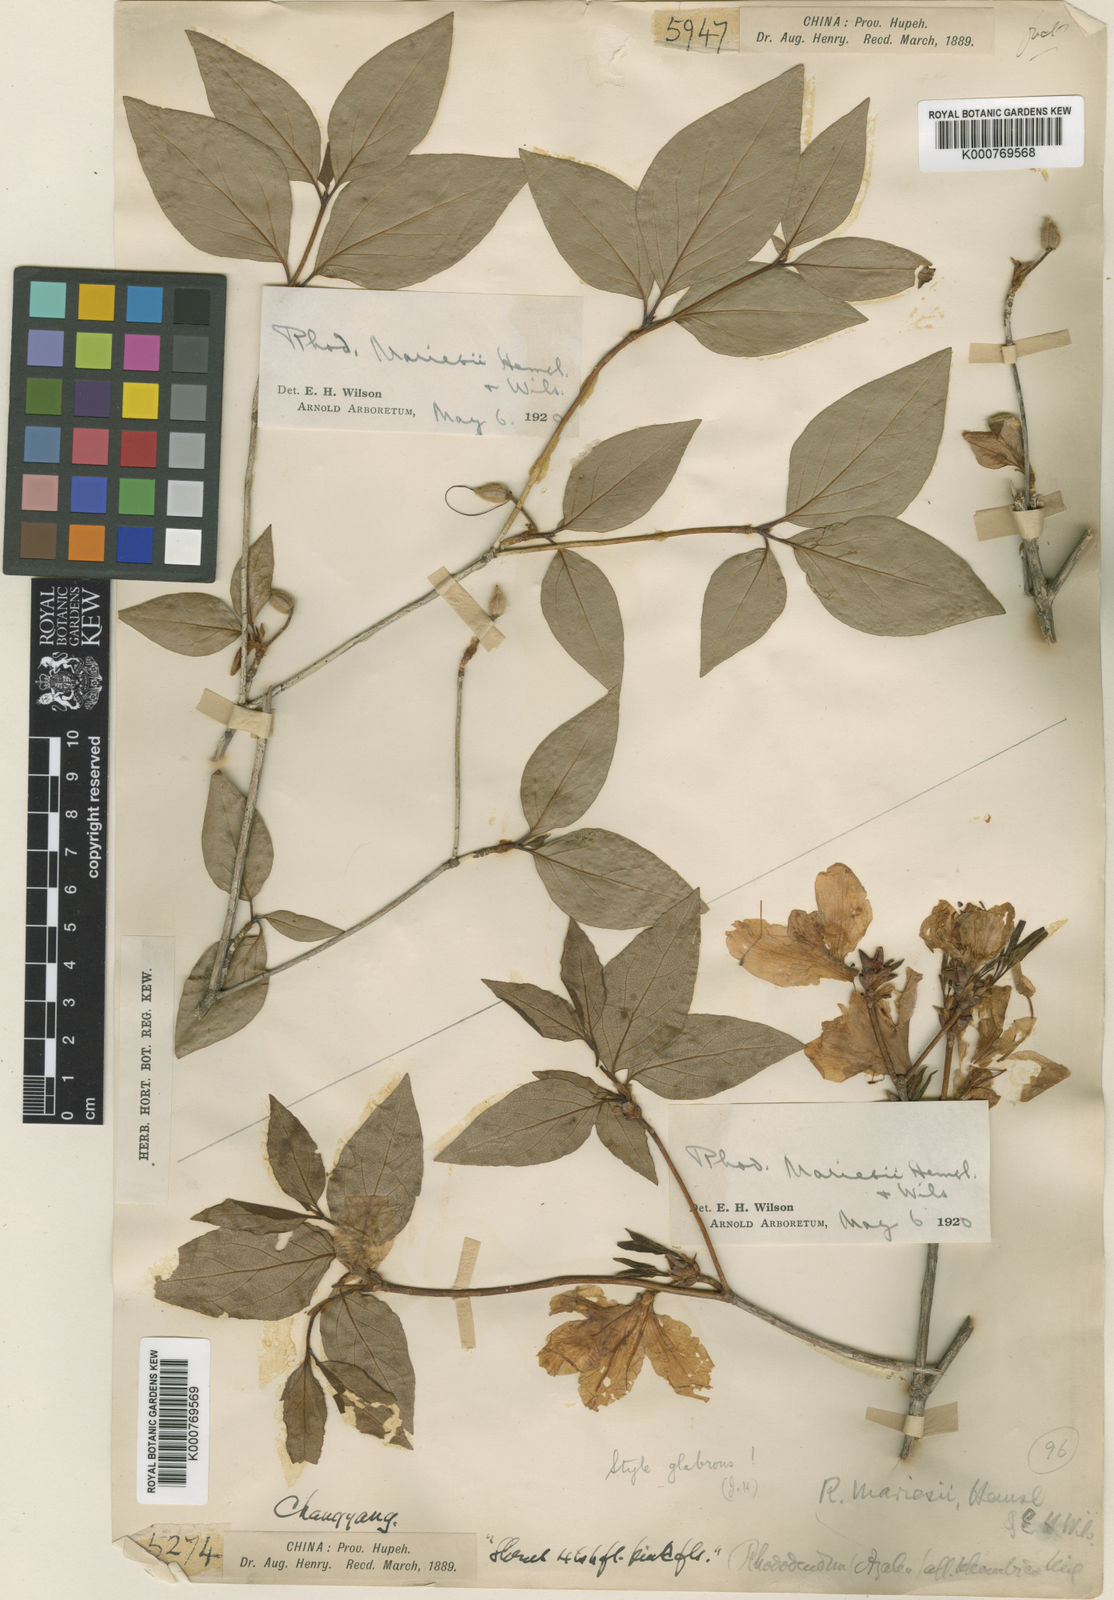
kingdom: Plantae
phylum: Tracheophyta
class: Magnoliopsida
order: Ericales
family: Ericaceae
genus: Rhododendron
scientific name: Rhododendron mariesii
